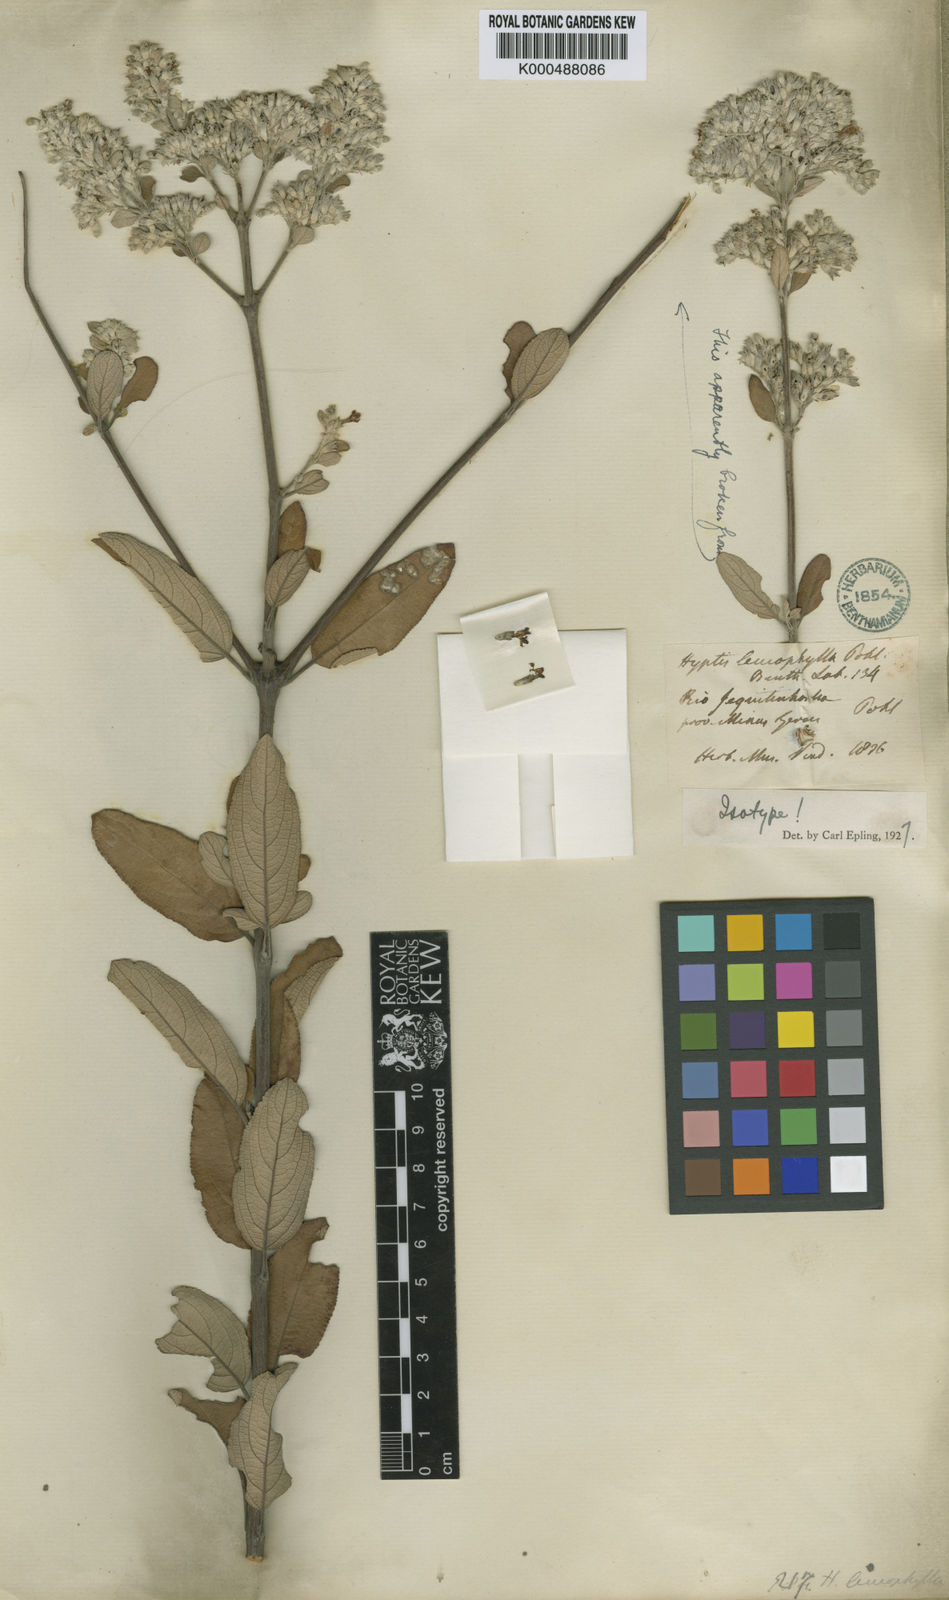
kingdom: Plantae
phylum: Tracheophyta
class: Magnoliopsida
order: Lamiales
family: Lamiaceae
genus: Hyptidendron
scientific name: Hyptidendron leucophyllum
